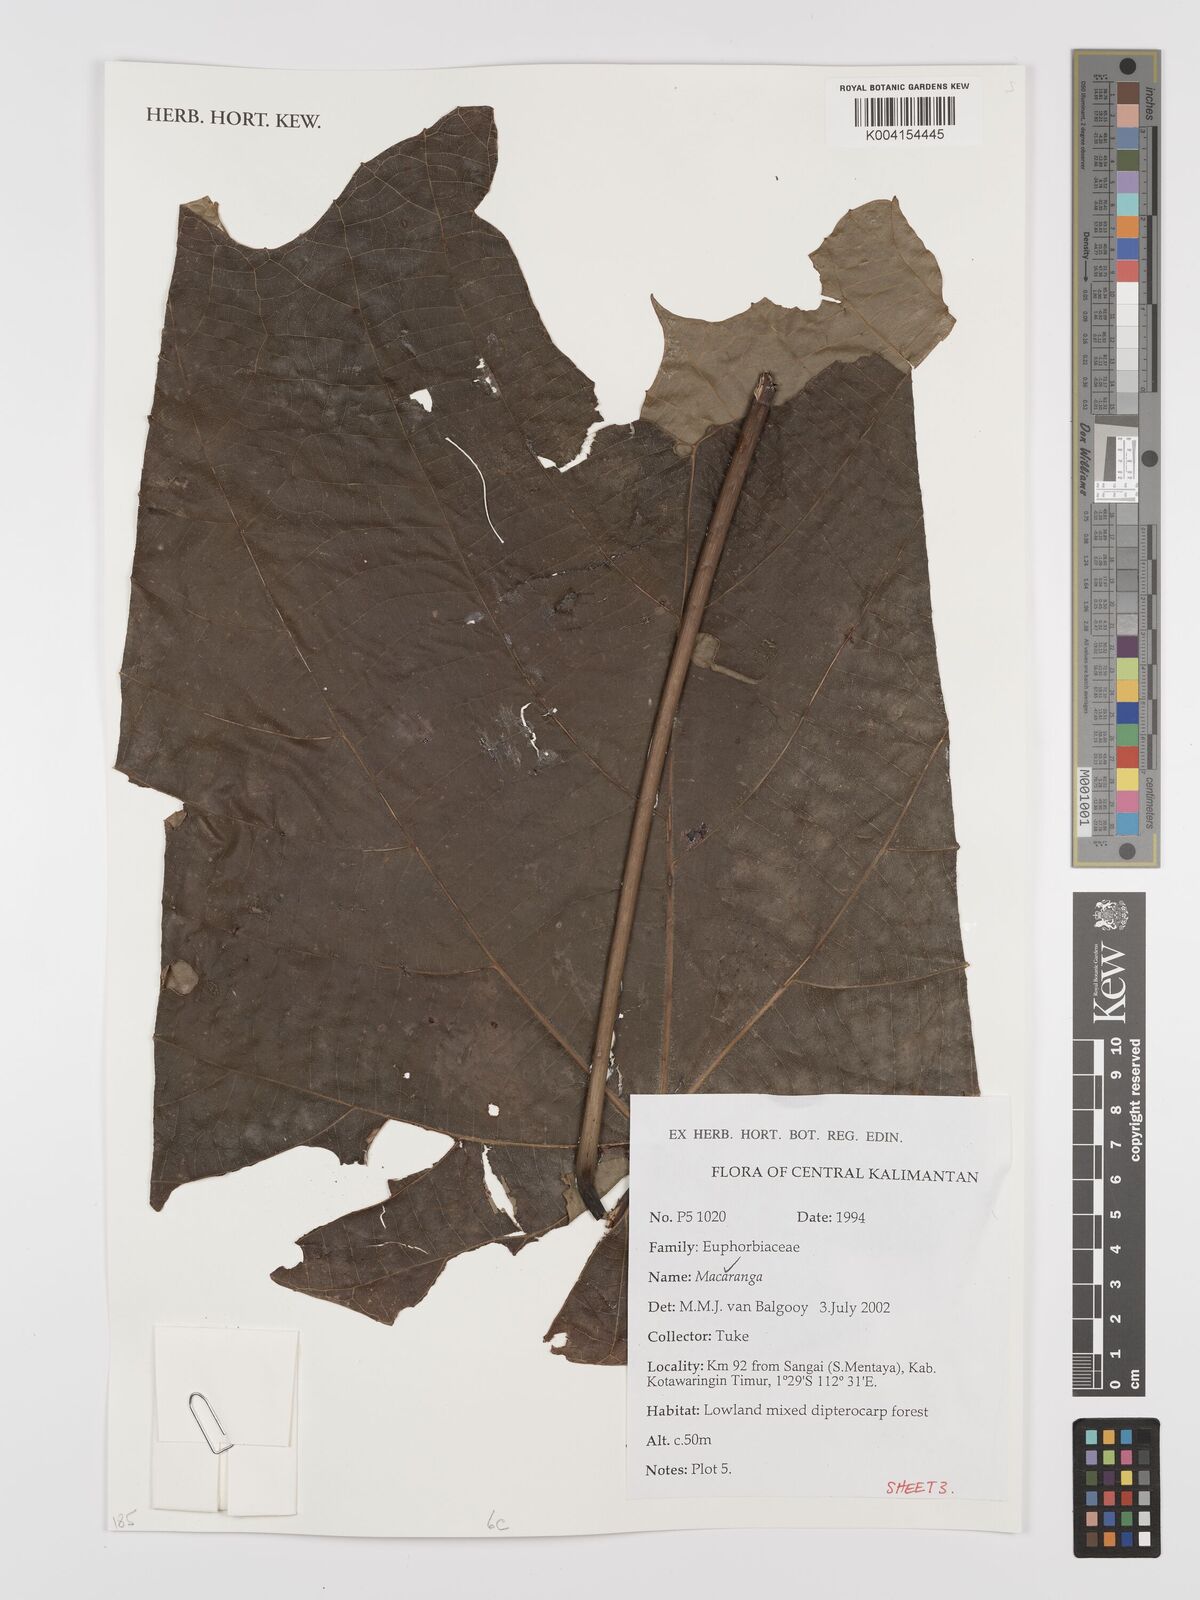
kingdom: Plantae
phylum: Tracheophyta
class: Magnoliopsida
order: Malpighiales
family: Euphorbiaceae
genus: Macaranga
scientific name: Macaranga
